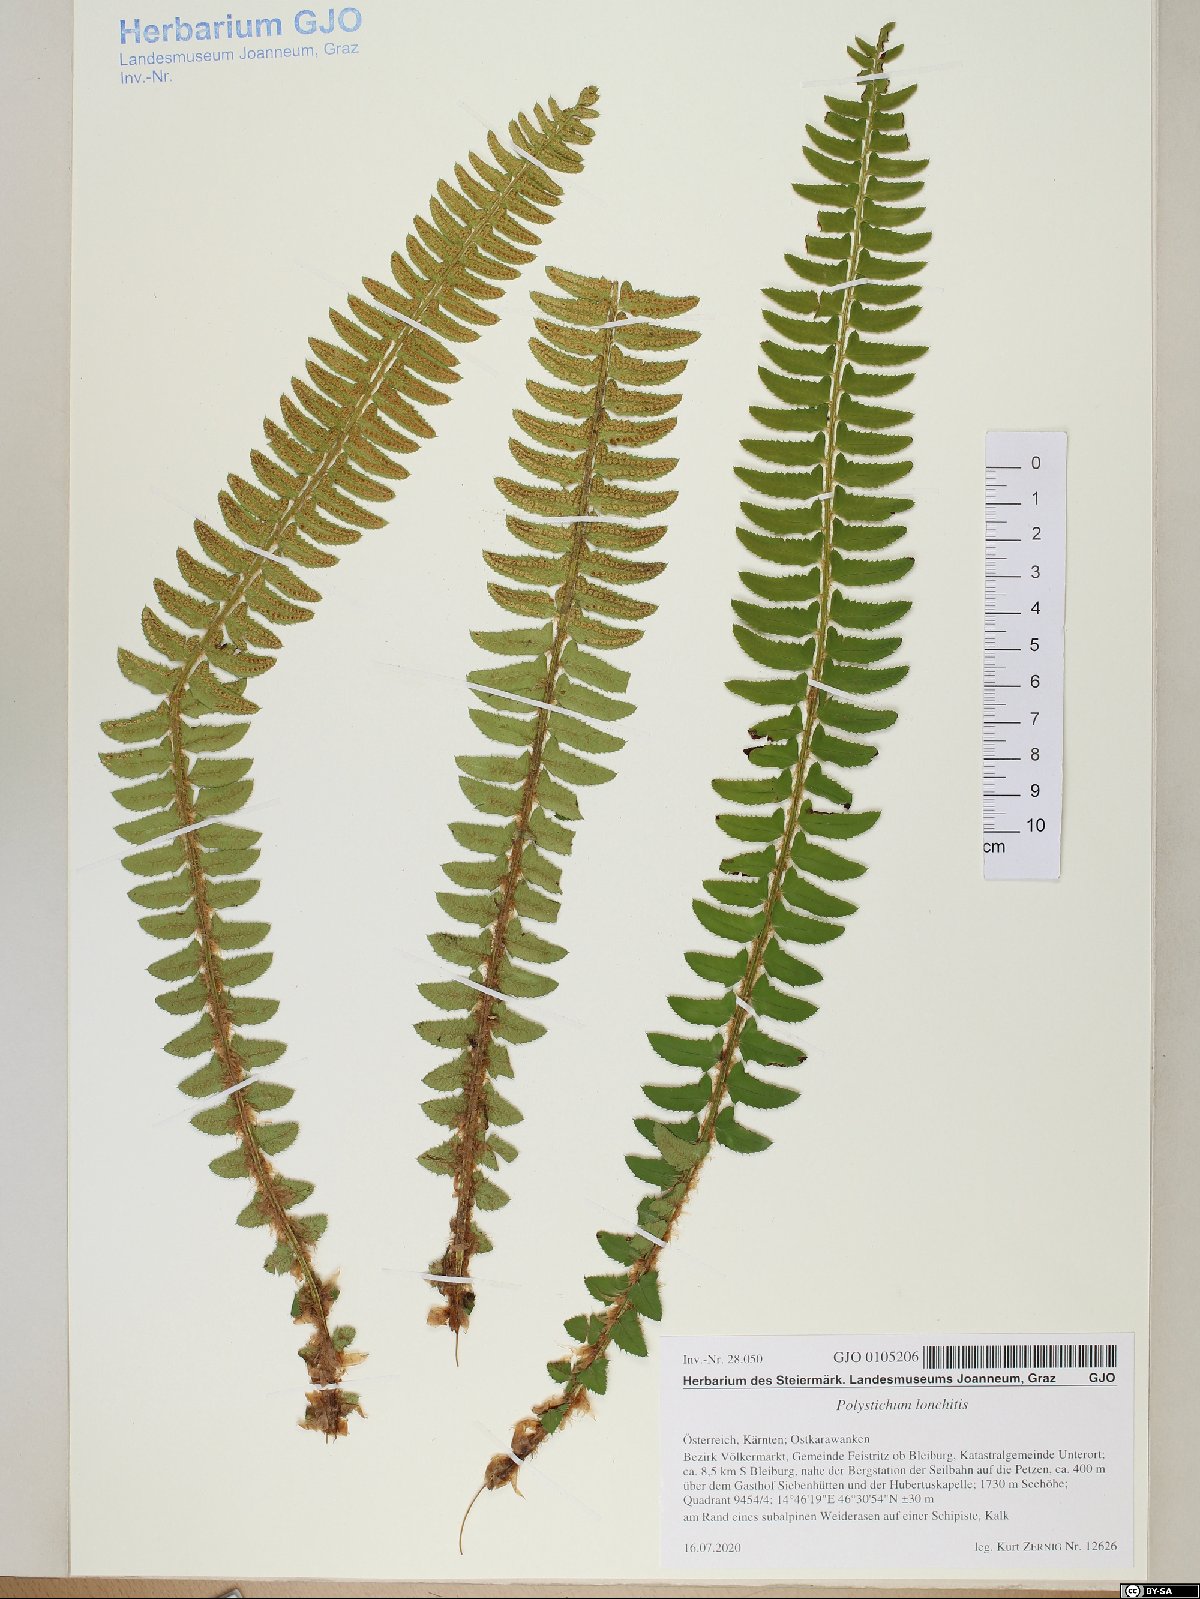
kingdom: Plantae
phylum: Tracheophyta
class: Polypodiopsida
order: Polypodiales
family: Dryopteridaceae
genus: Polystichum
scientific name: Polystichum lonchitis
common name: Holly fern
